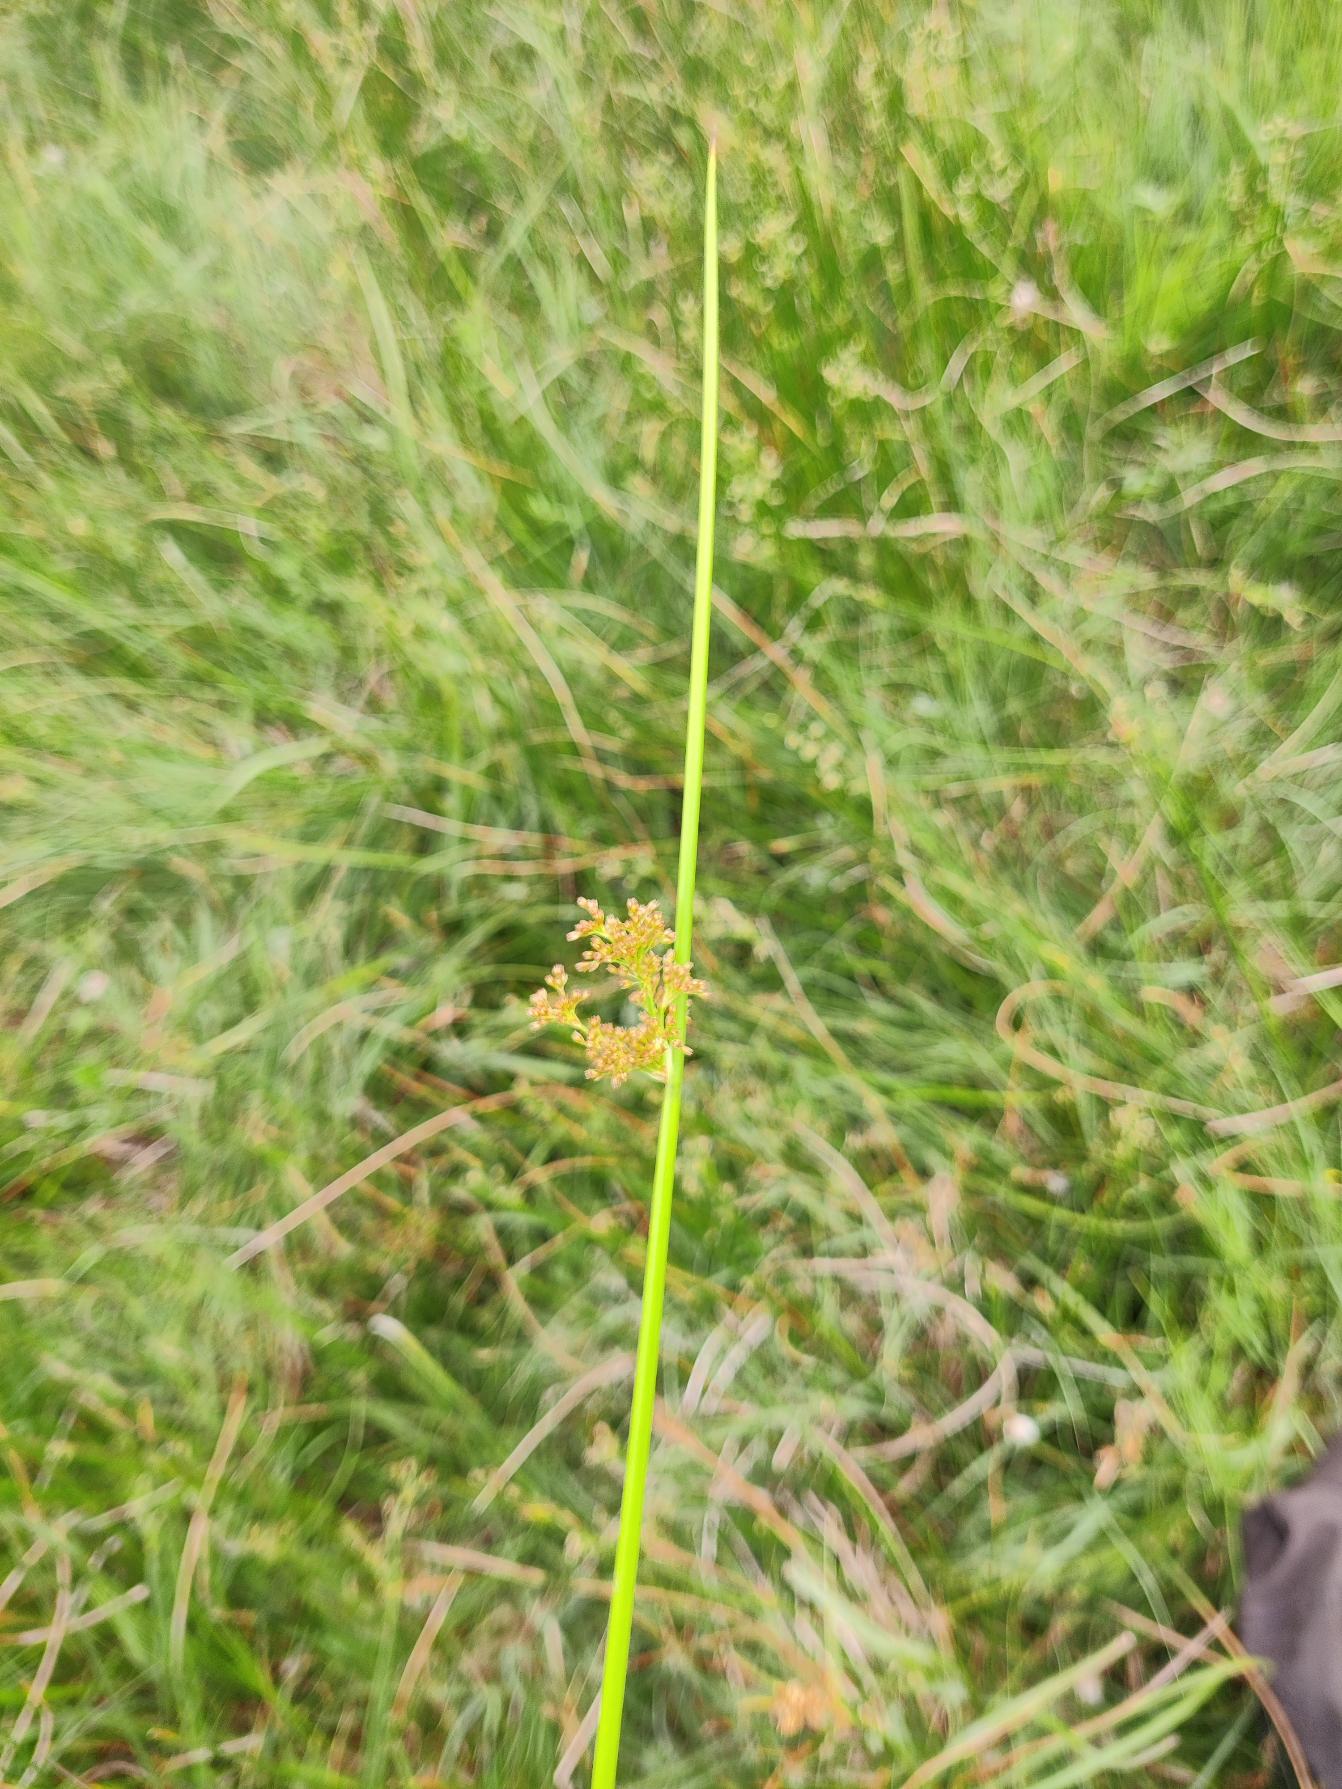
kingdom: Plantae
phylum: Tracheophyta
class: Liliopsida
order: Poales
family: Juncaceae
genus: Juncus
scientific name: Juncus effusus
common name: Lyse-siv
